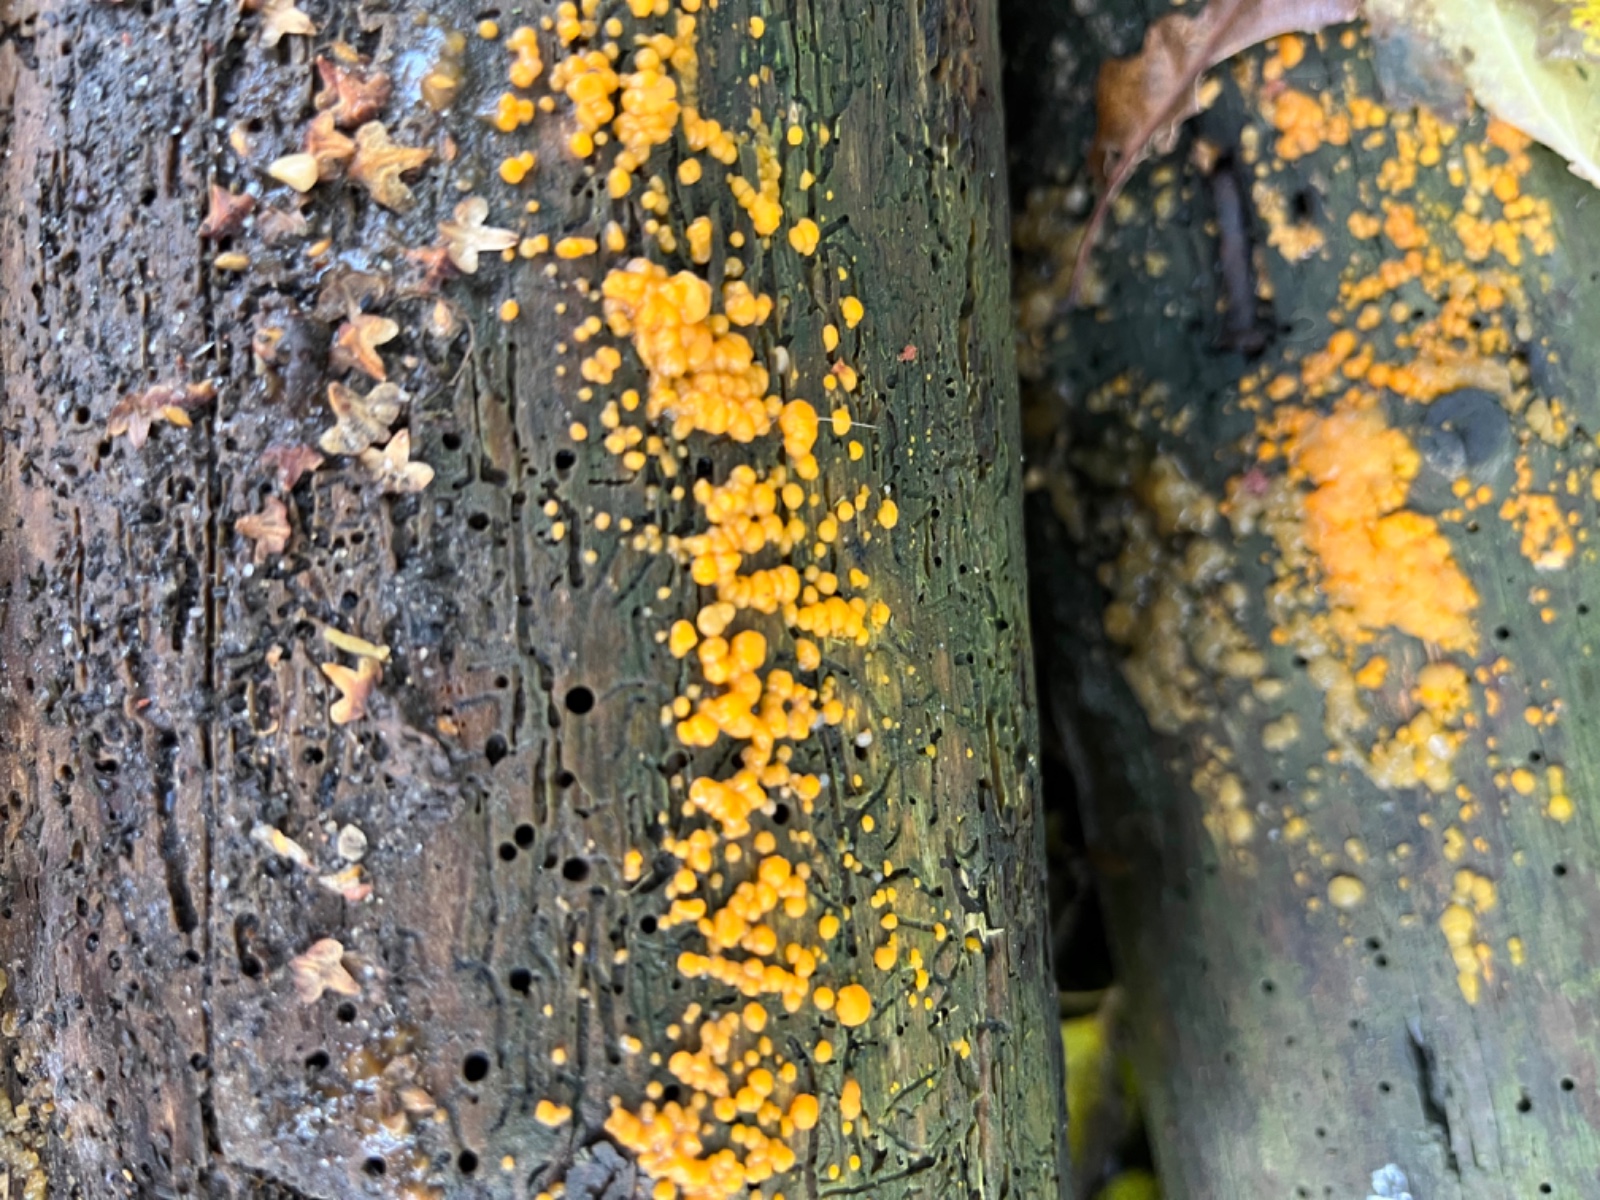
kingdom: Fungi
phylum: Basidiomycota
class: Dacrymycetes
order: Dacrymycetales
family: Dacrymycetaceae
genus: Dacrymyces
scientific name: Dacrymyces stillatus
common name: almindelig tåresvamp
